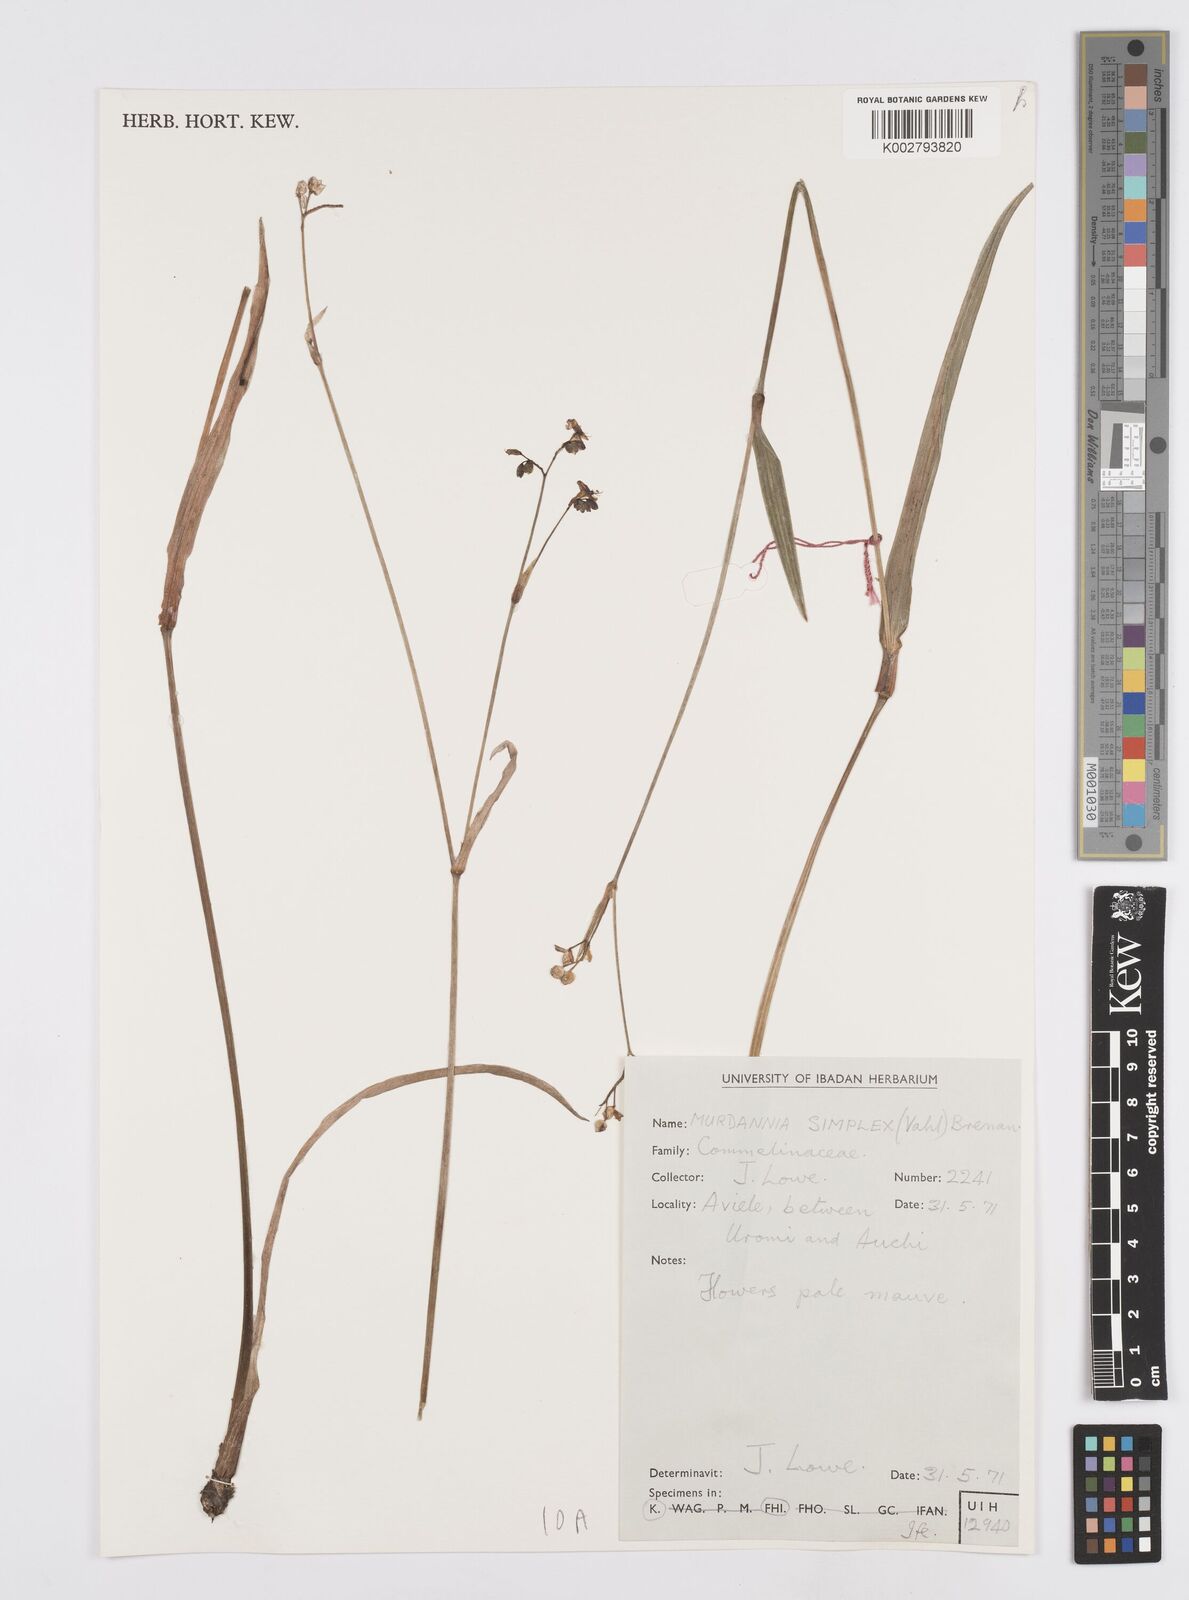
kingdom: Plantae
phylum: Tracheophyta
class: Liliopsida
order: Commelinales
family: Commelinaceae
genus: Murdannia
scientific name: Murdannia simplex
